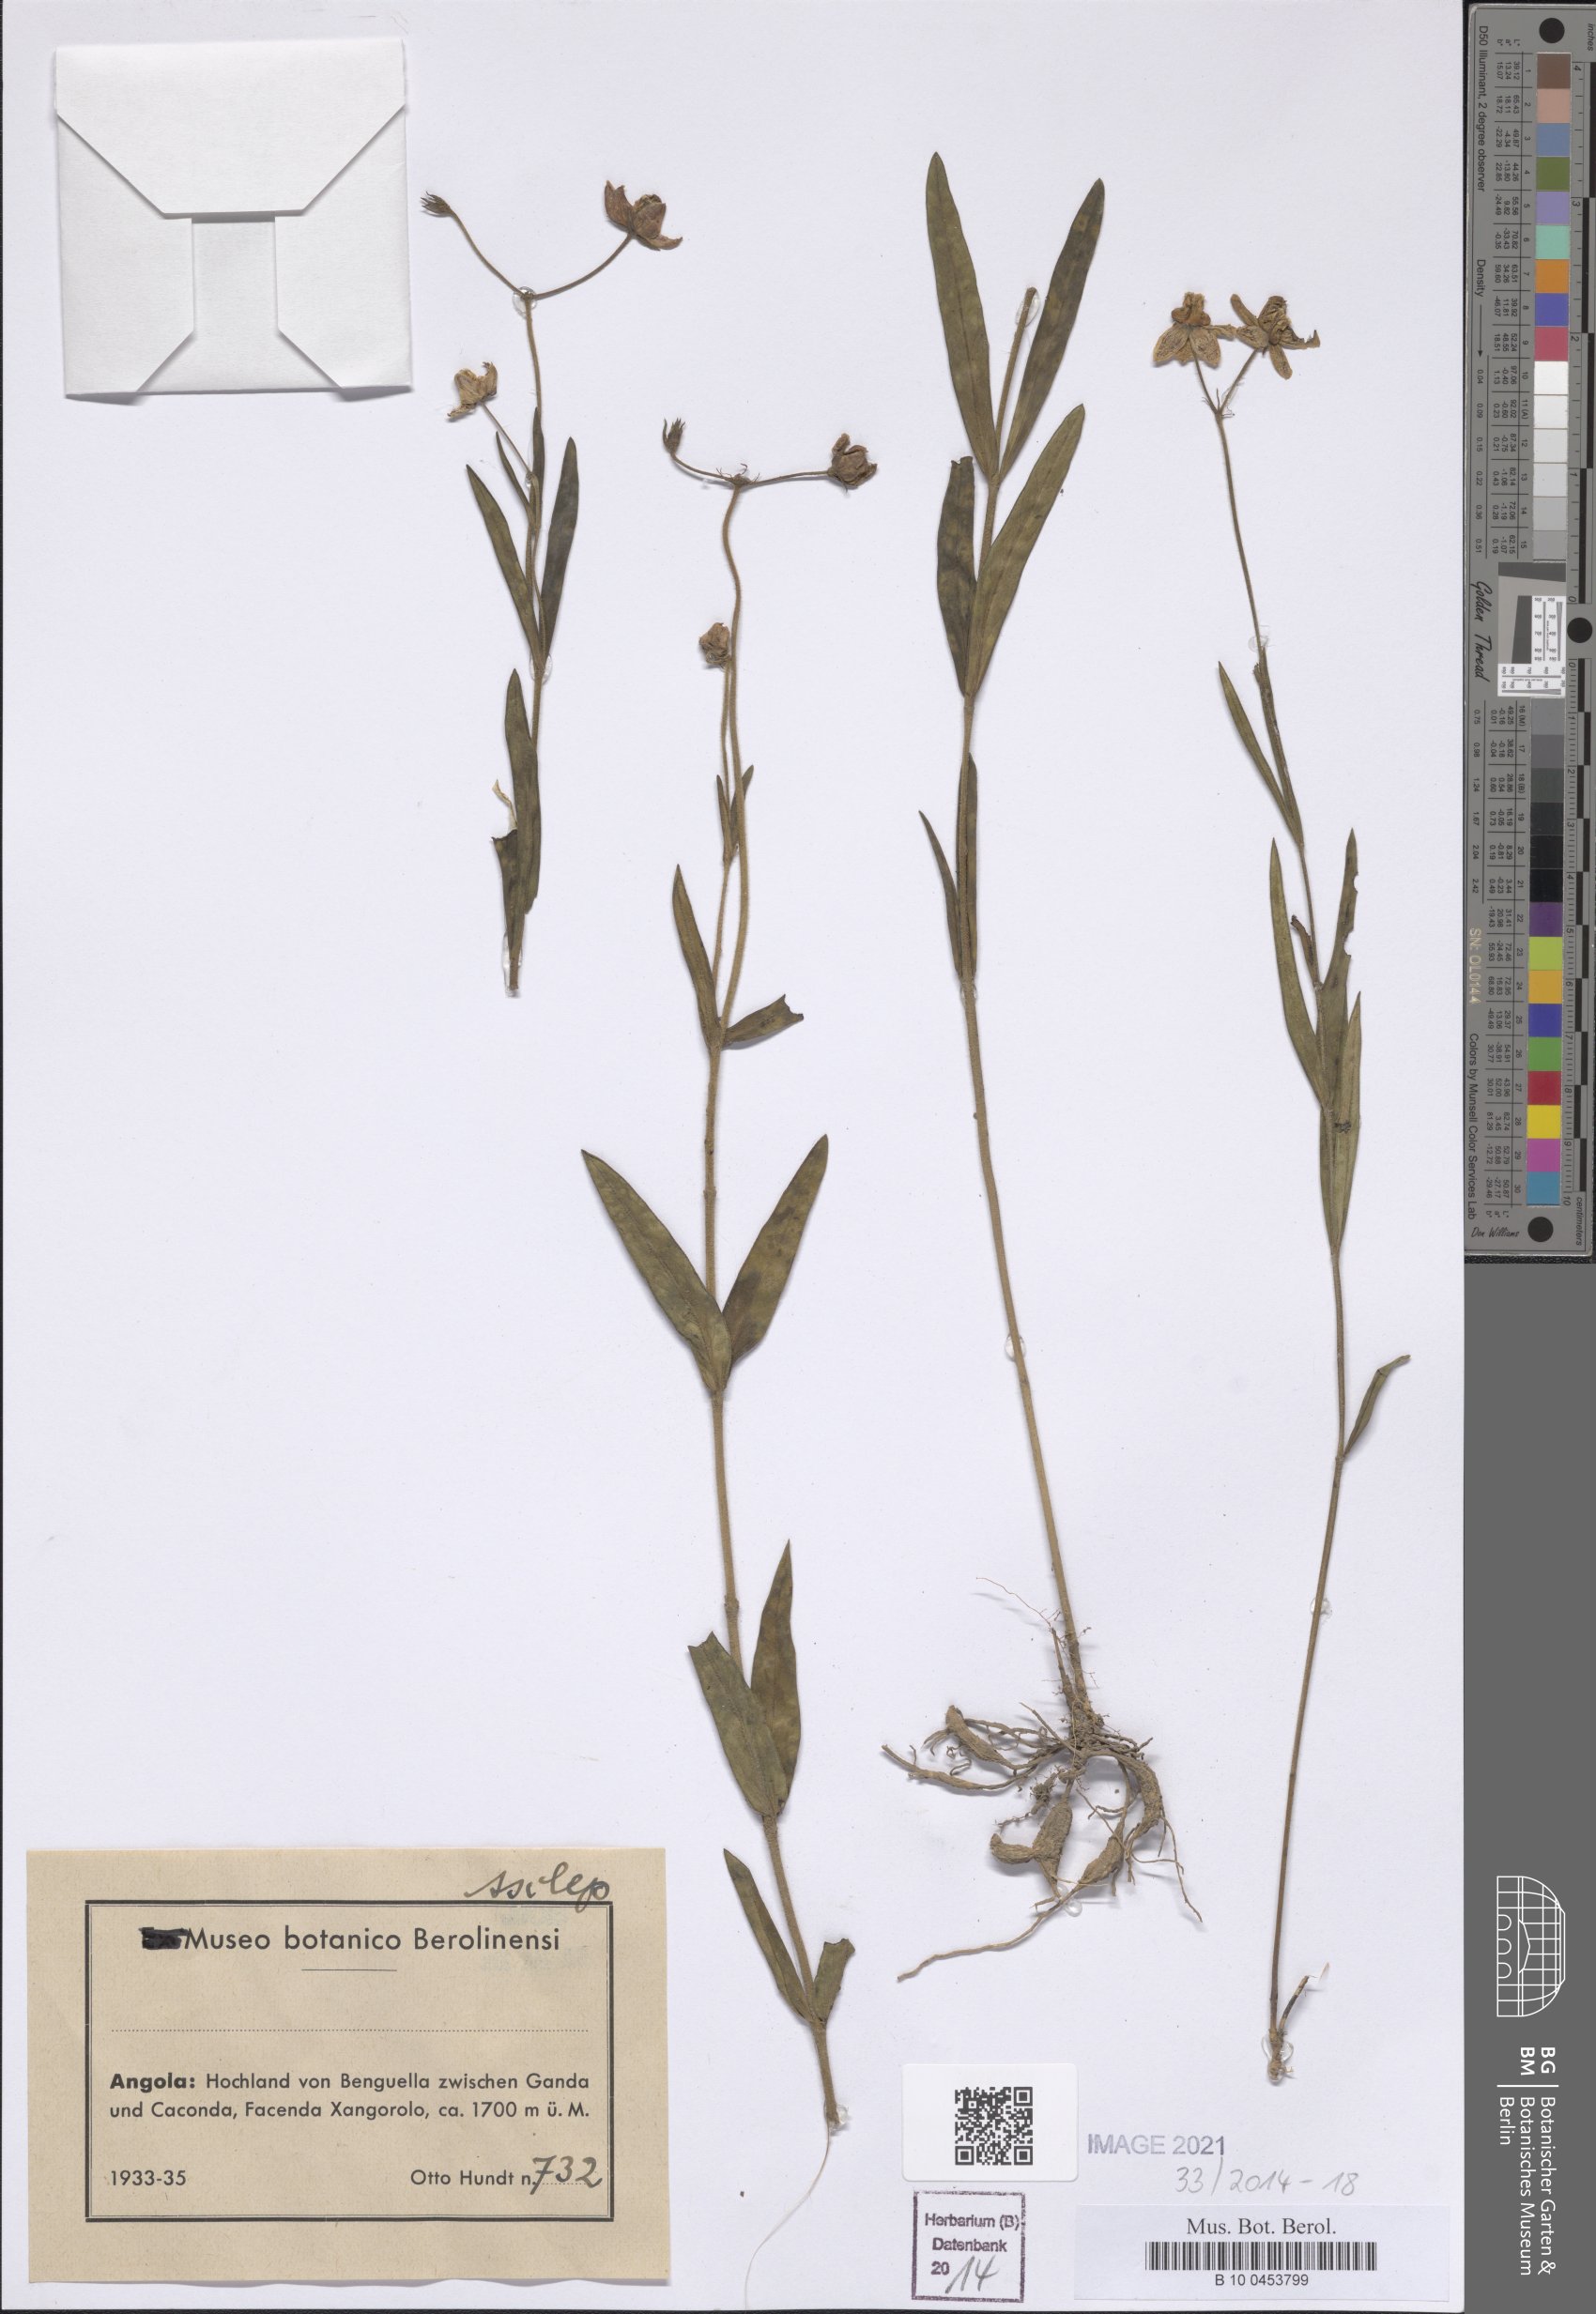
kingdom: Plantae
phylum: Tracheophyta
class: Magnoliopsida
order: Gentianales
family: Asclepiadaceae
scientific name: Asclepiadaceae
